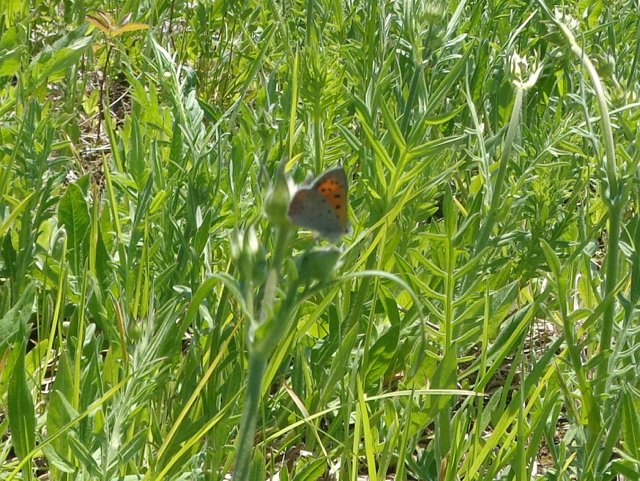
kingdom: Animalia
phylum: Arthropoda
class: Insecta
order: Lepidoptera
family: Lycaenidae
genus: Lycaena
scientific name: Lycaena phlaeas
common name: American Copper
